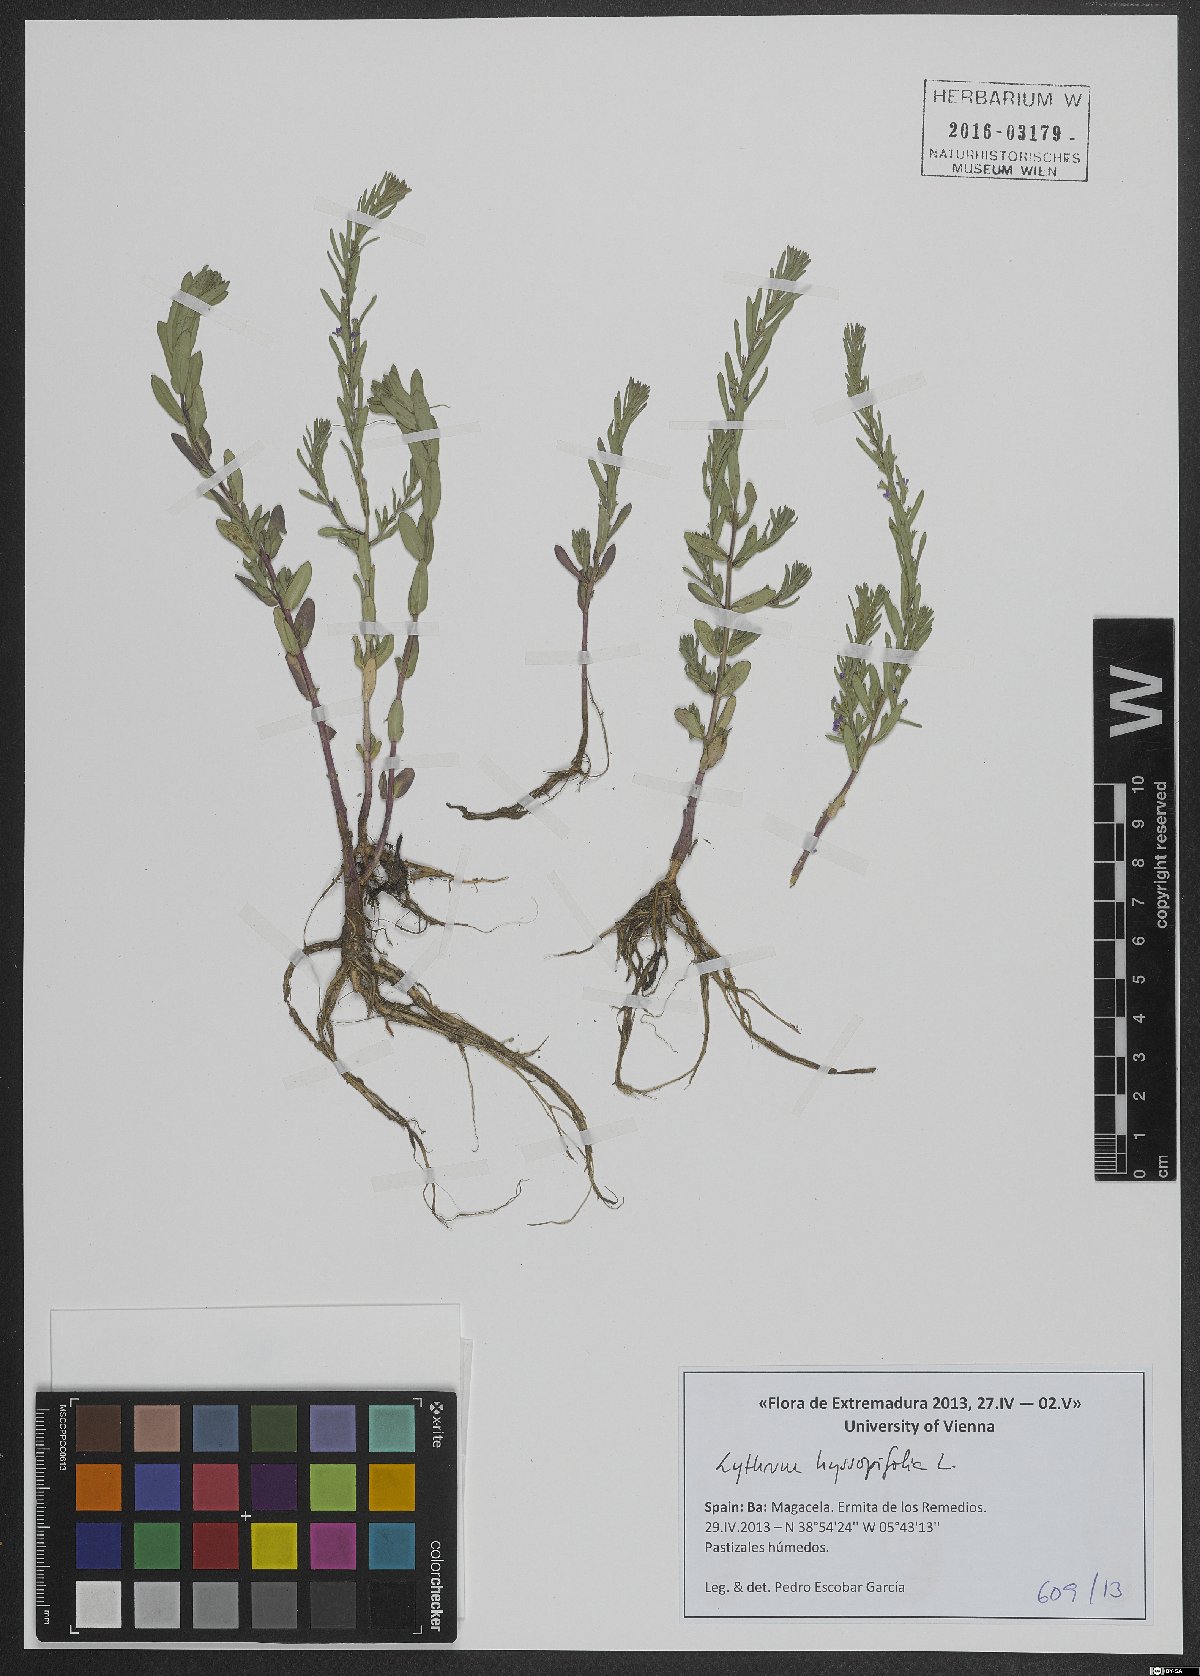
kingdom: Plantae
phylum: Tracheophyta
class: Magnoliopsida
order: Myrtales
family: Lythraceae
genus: Lythrum
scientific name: Lythrum hyssopifolia
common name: Grass-poly
